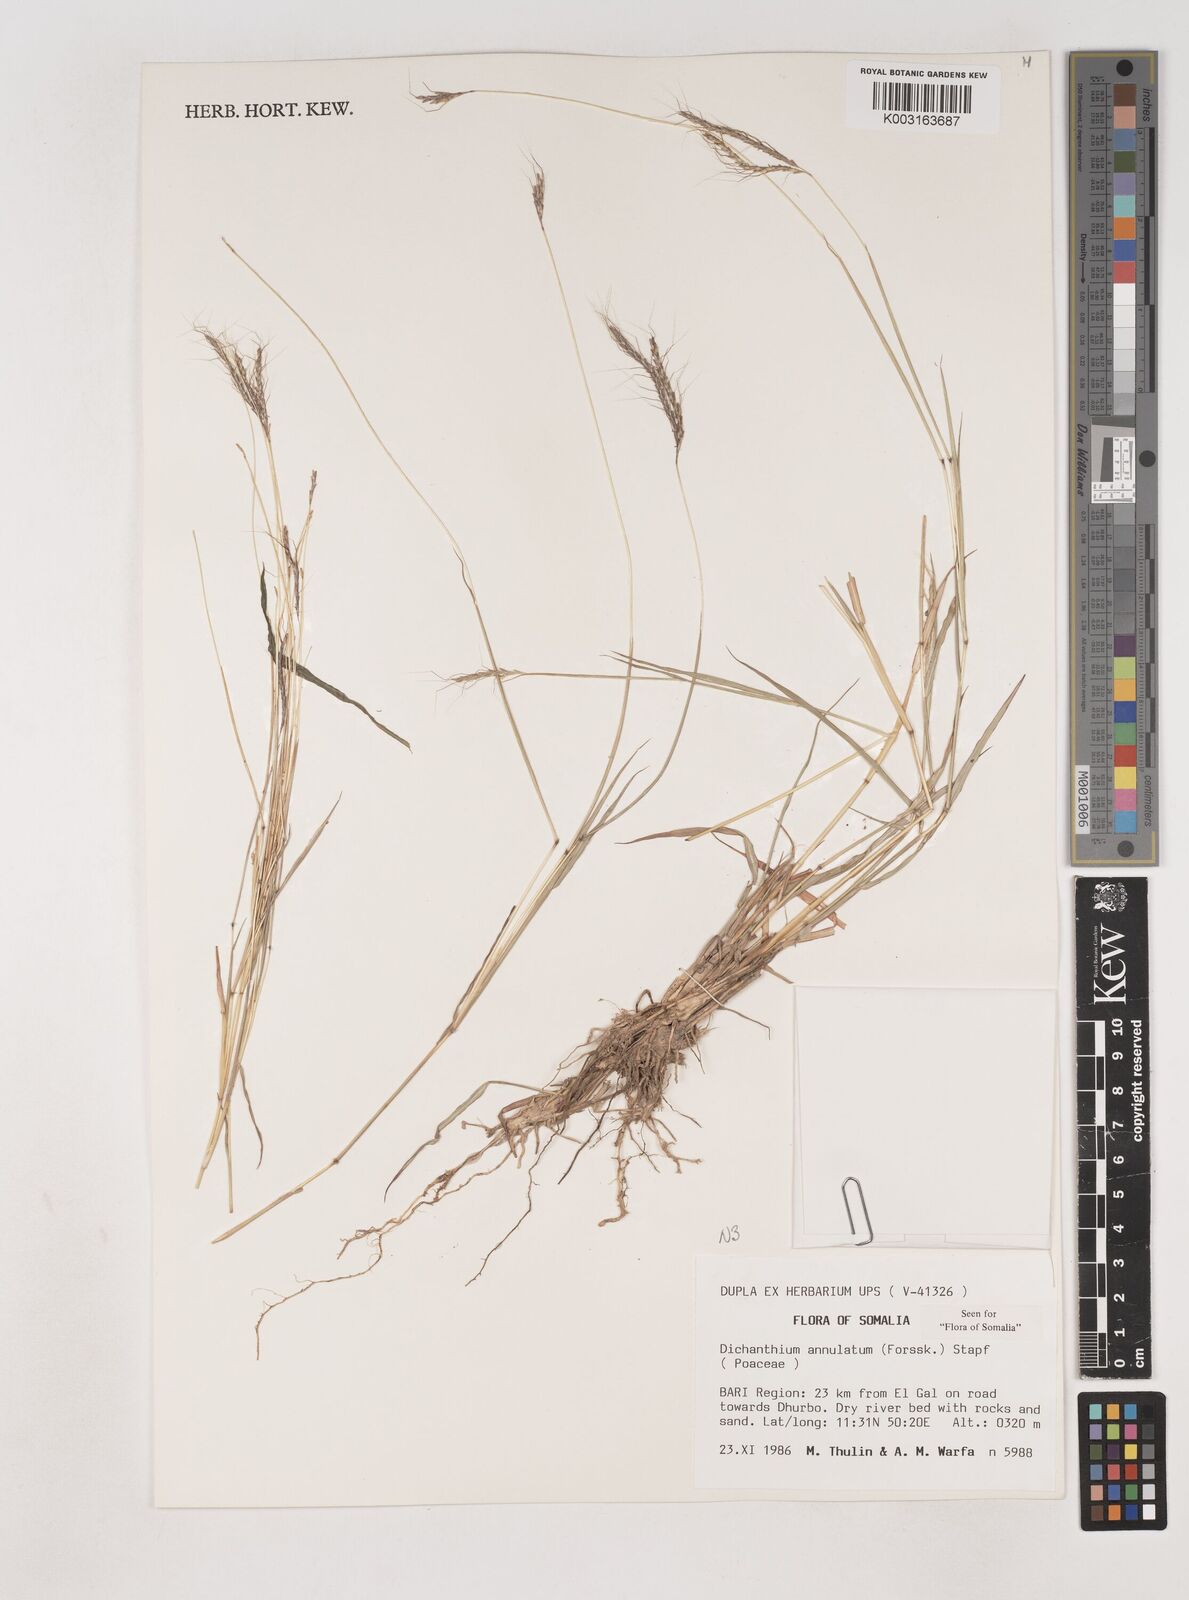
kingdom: Plantae
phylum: Tracheophyta
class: Liliopsida
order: Poales
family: Poaceae
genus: Dichanthium
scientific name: Dichanthium annulatum
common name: Kleberg's bluestem
